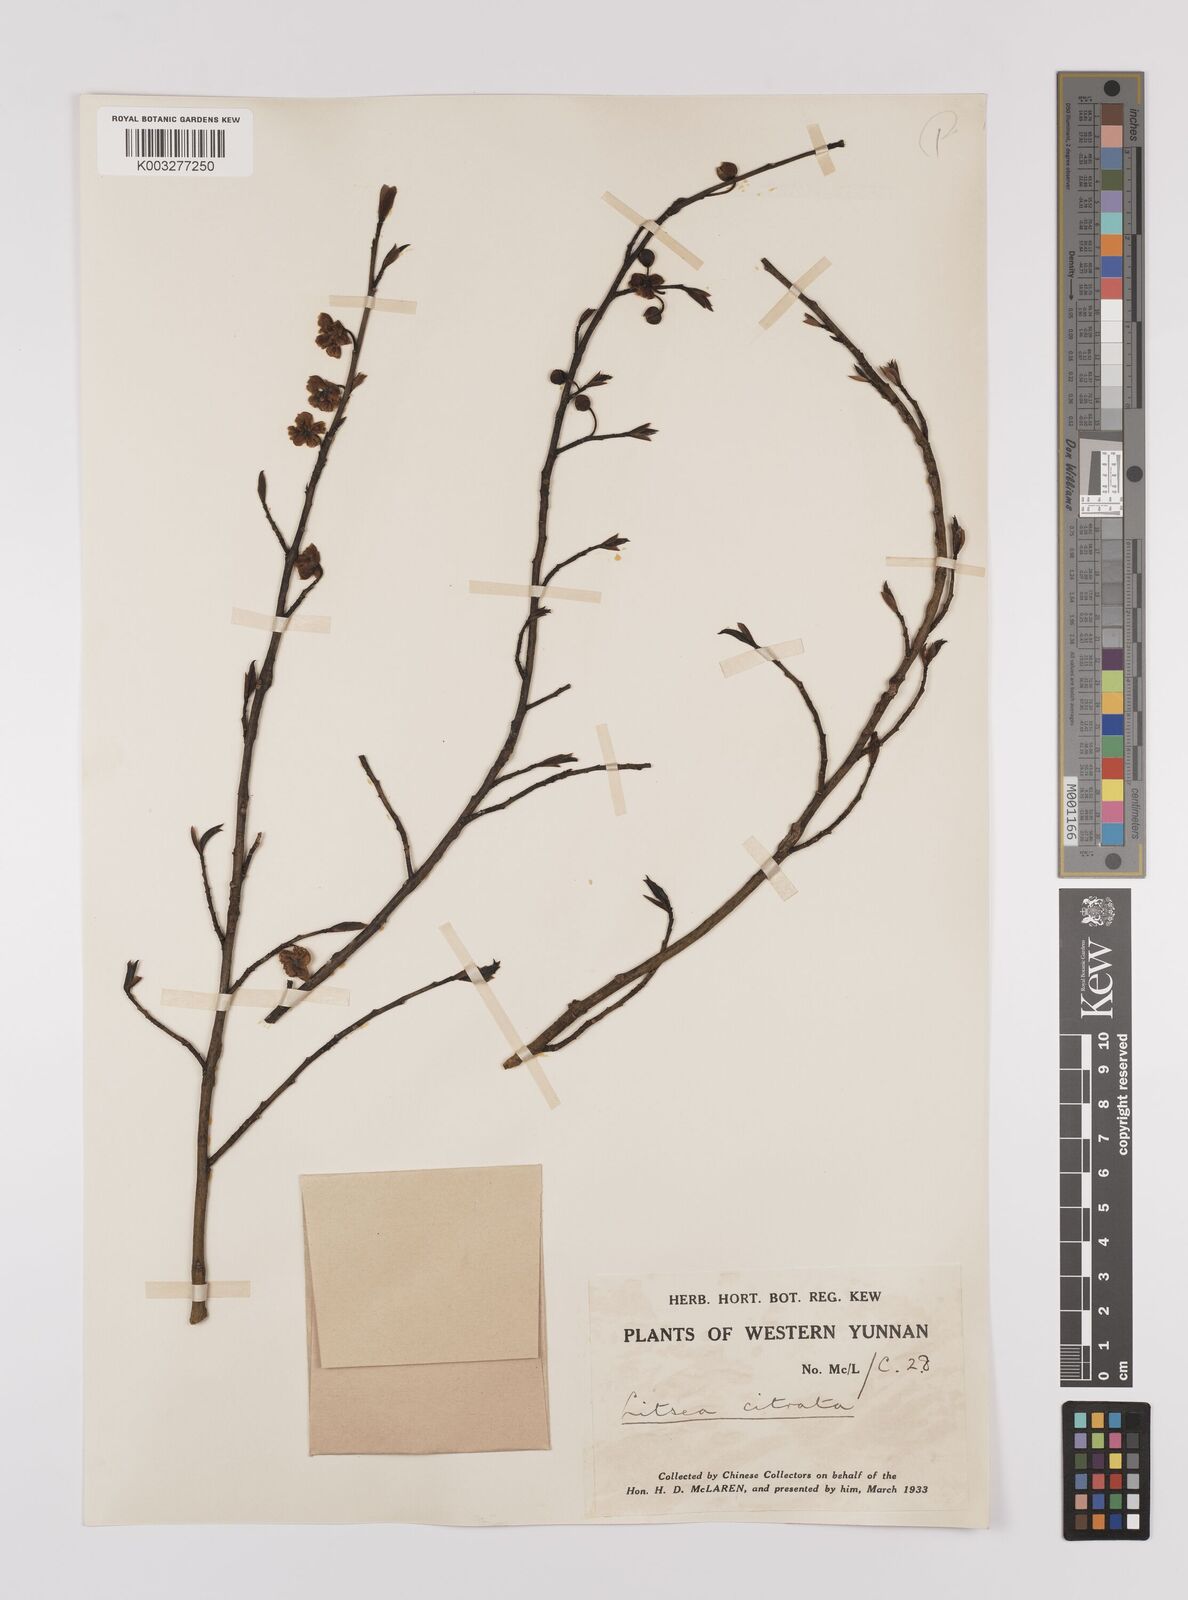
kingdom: Plantae
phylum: Tracheophyta
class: Magnoliopsida
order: Laurales
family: Lauraceae
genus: Litsea
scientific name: Litsea cubeba
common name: Mountain-pepper
